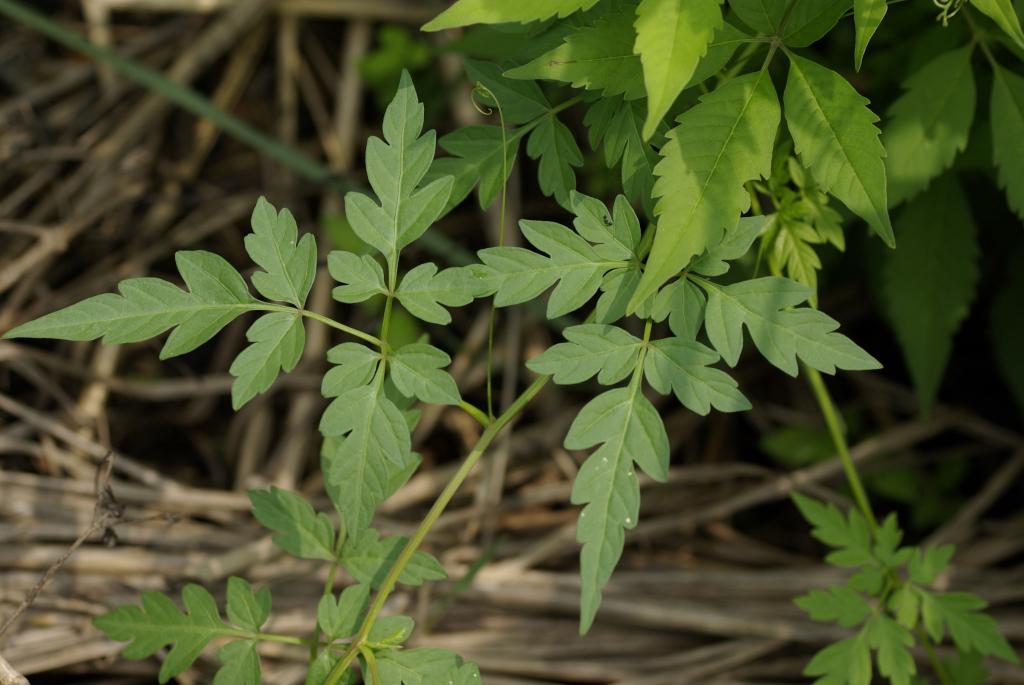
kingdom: Plantae
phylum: Tracheophyta
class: Magnoliopsida
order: Sapindales
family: Sapindaceae
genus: Cardiospermum
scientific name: Cardiospermum halicacabum
